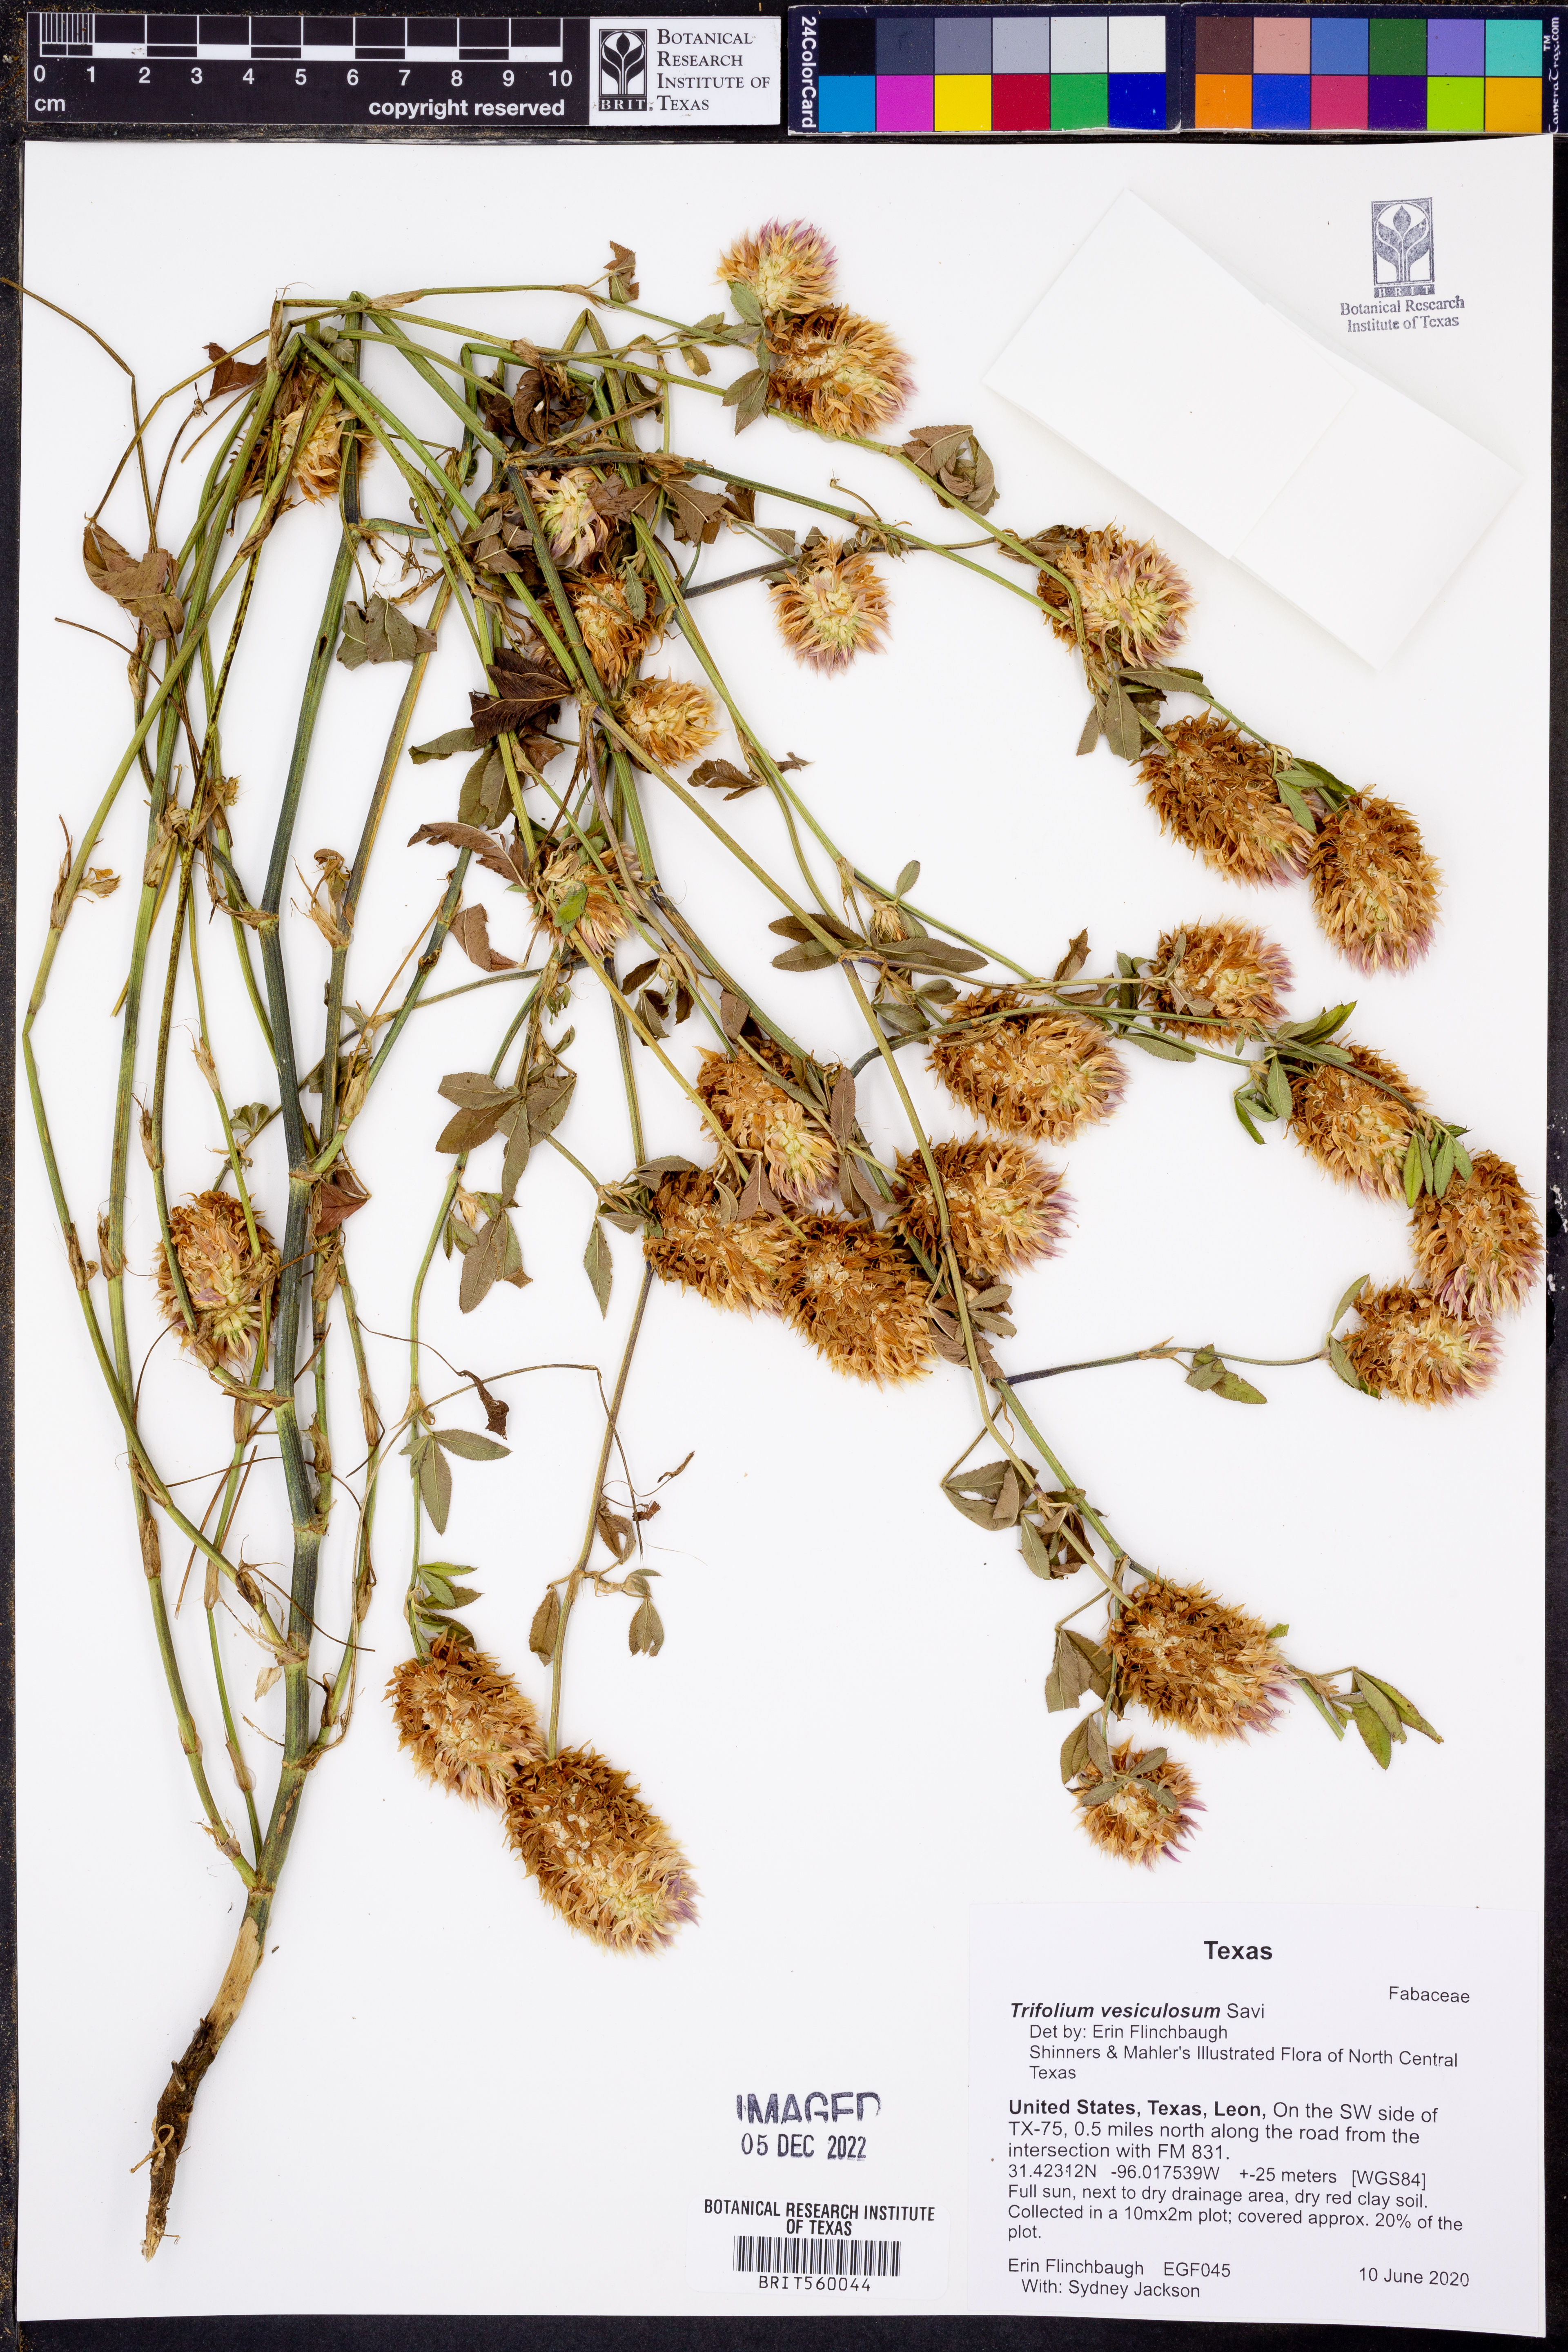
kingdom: Plantae
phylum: Tracheophyta
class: Magnoliopsida
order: Fabales
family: Fabaceae
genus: Trifolium
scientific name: Trifolium vesiculosum
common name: Arrowleaf clover
